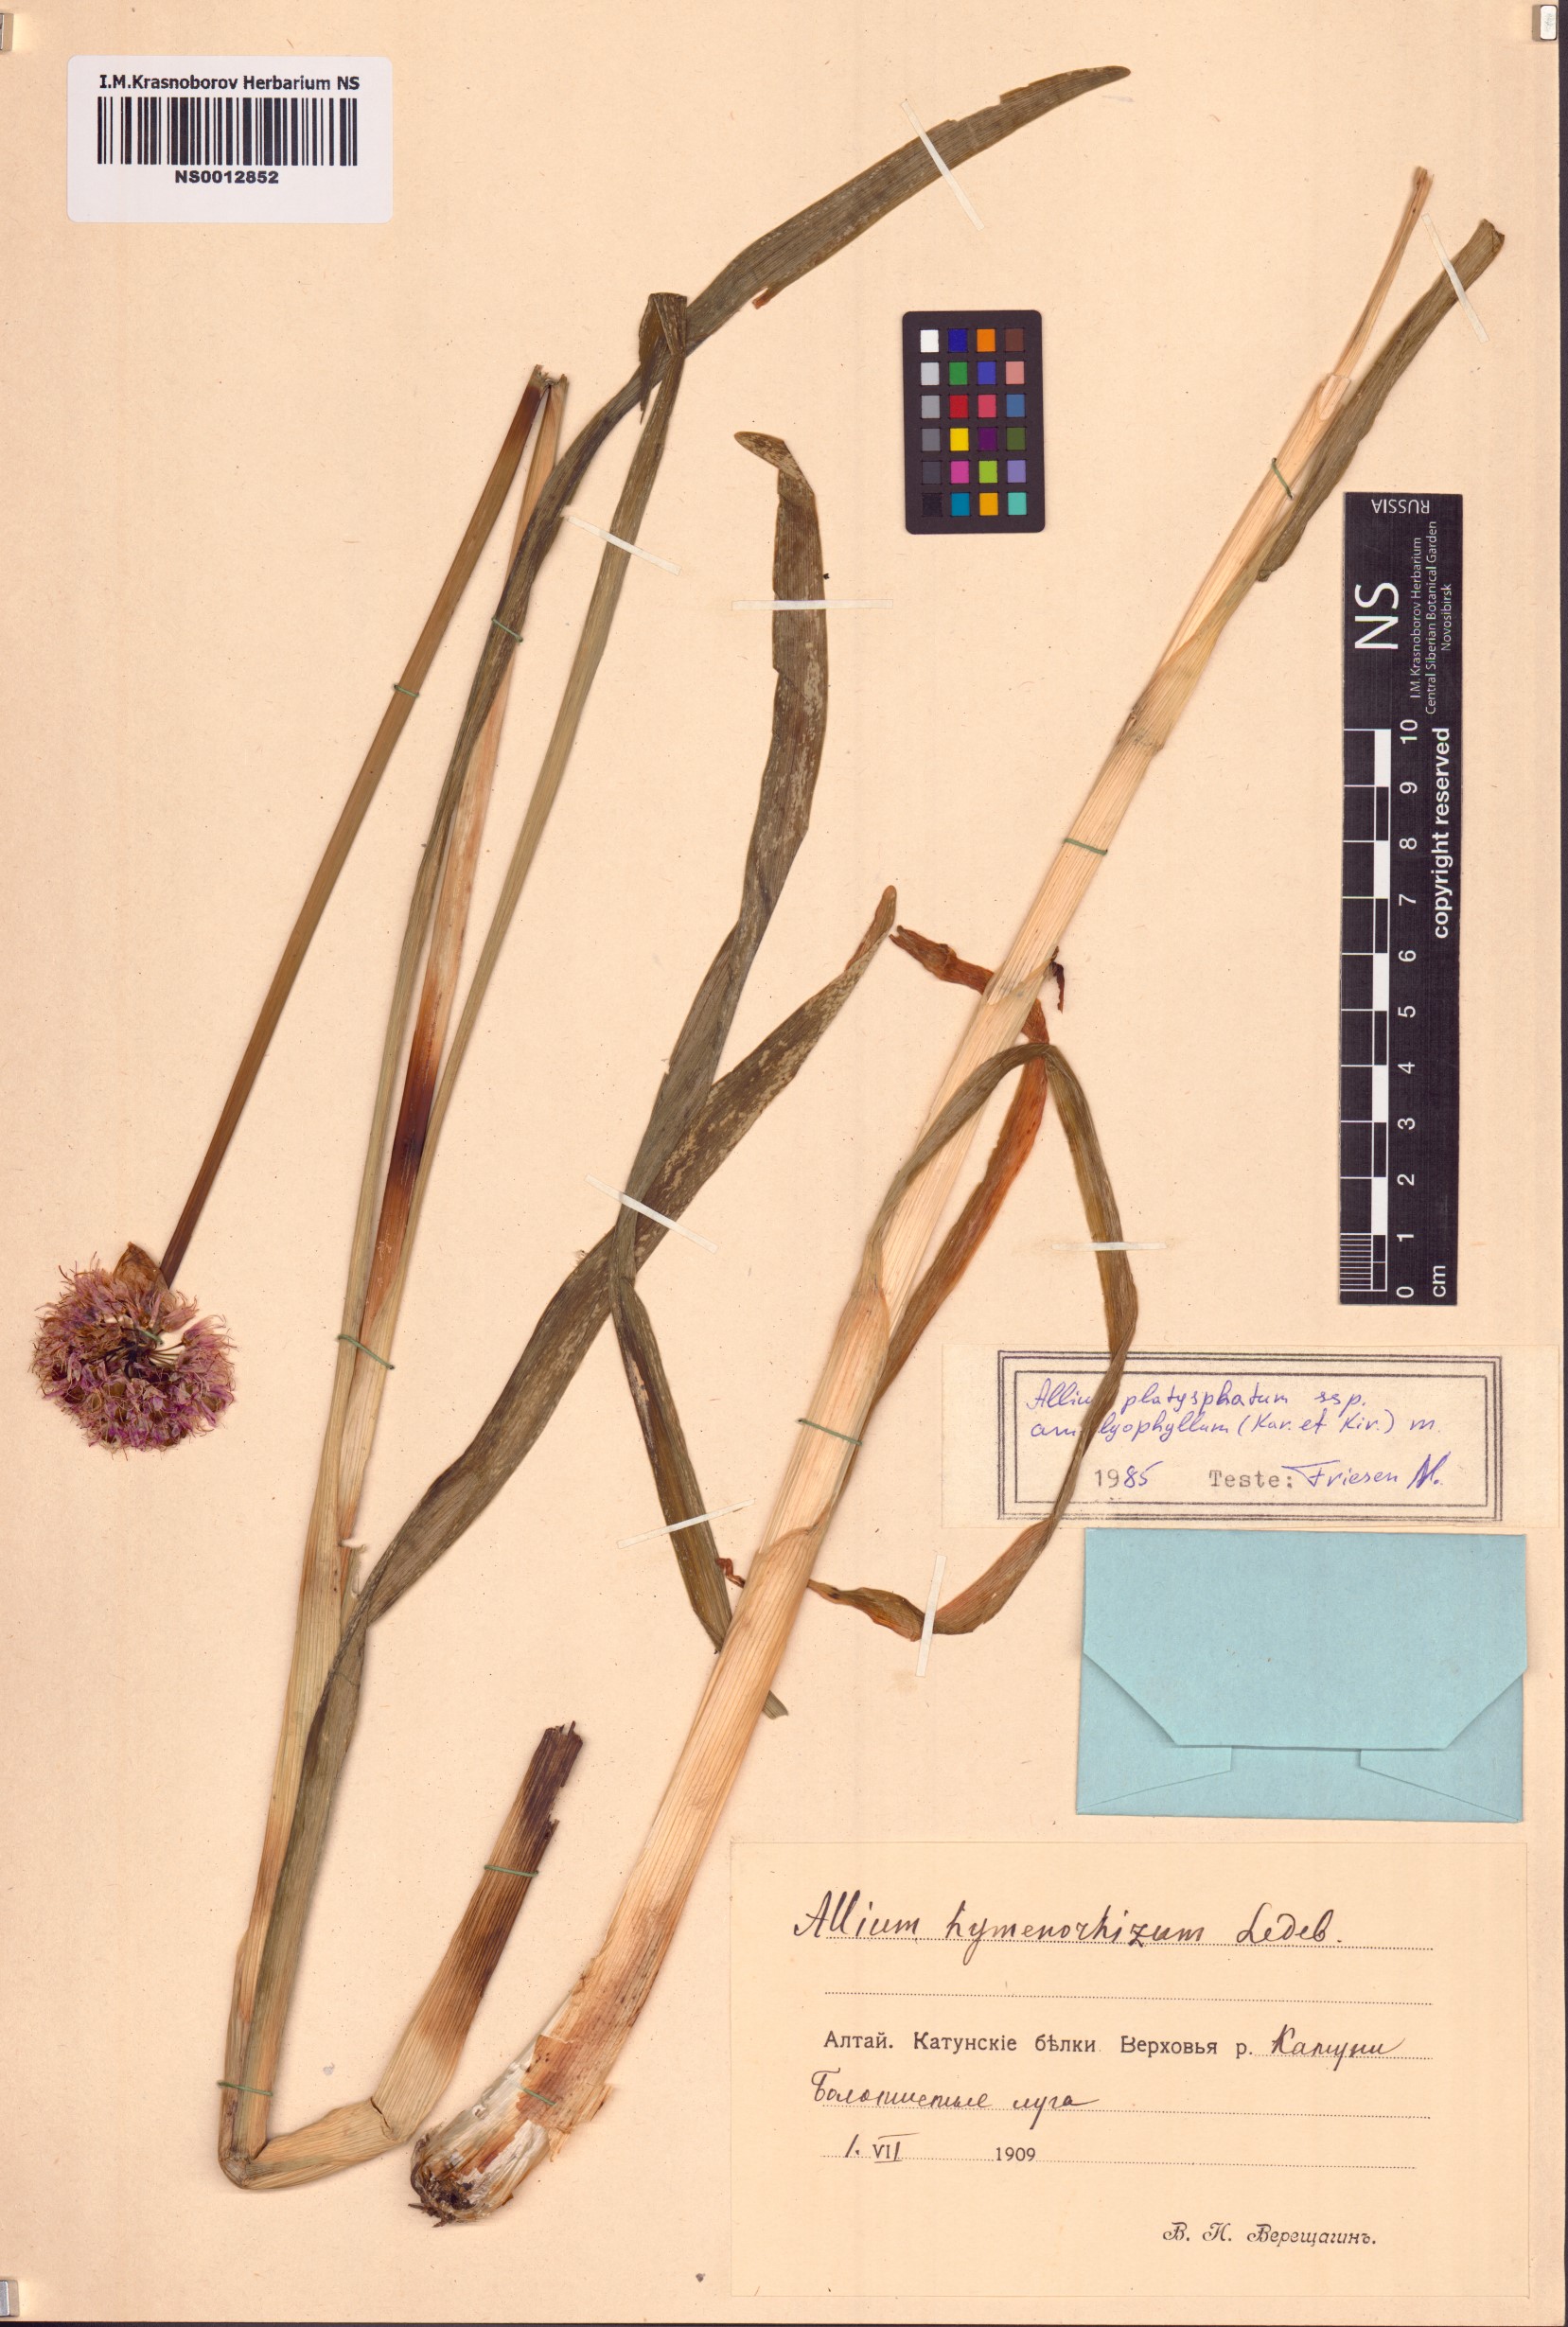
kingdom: Plantae
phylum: Tracheophyta
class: Liliopsida
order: Asparagales
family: Amaryllidaceae
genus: Allium
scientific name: Allium platyspathum
